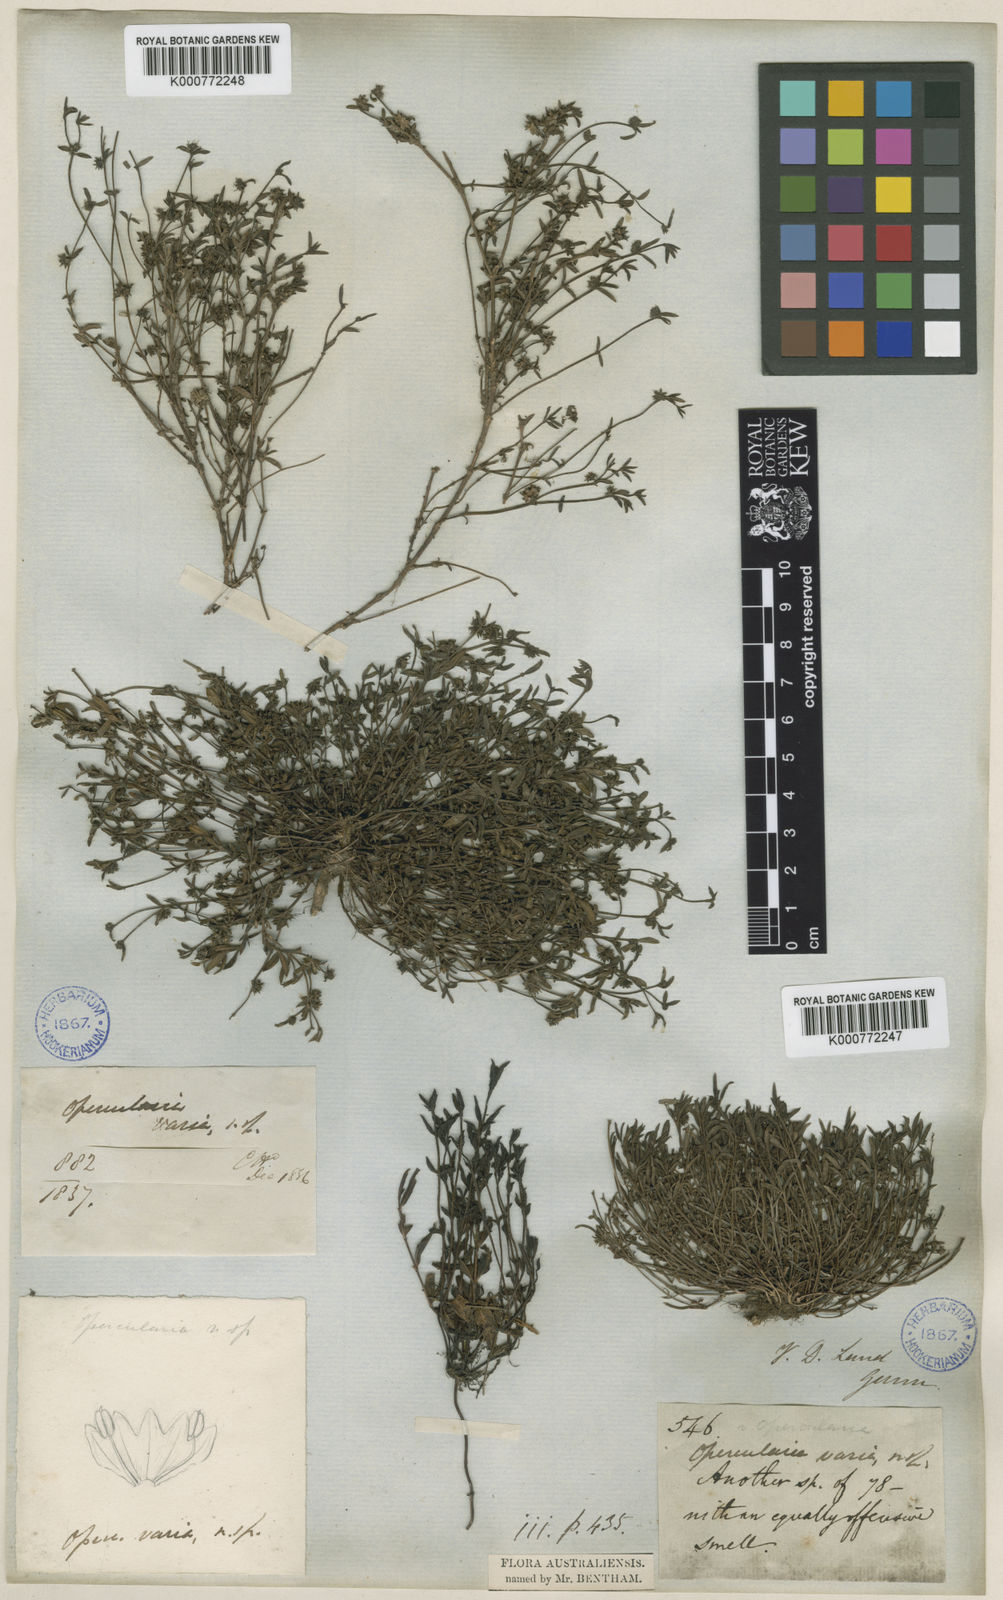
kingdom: Plantae
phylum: Tracheophyta
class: Magnoliopsida
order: Gentianales
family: Rubiaceae
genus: Opercularia
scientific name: Opercularia varia
